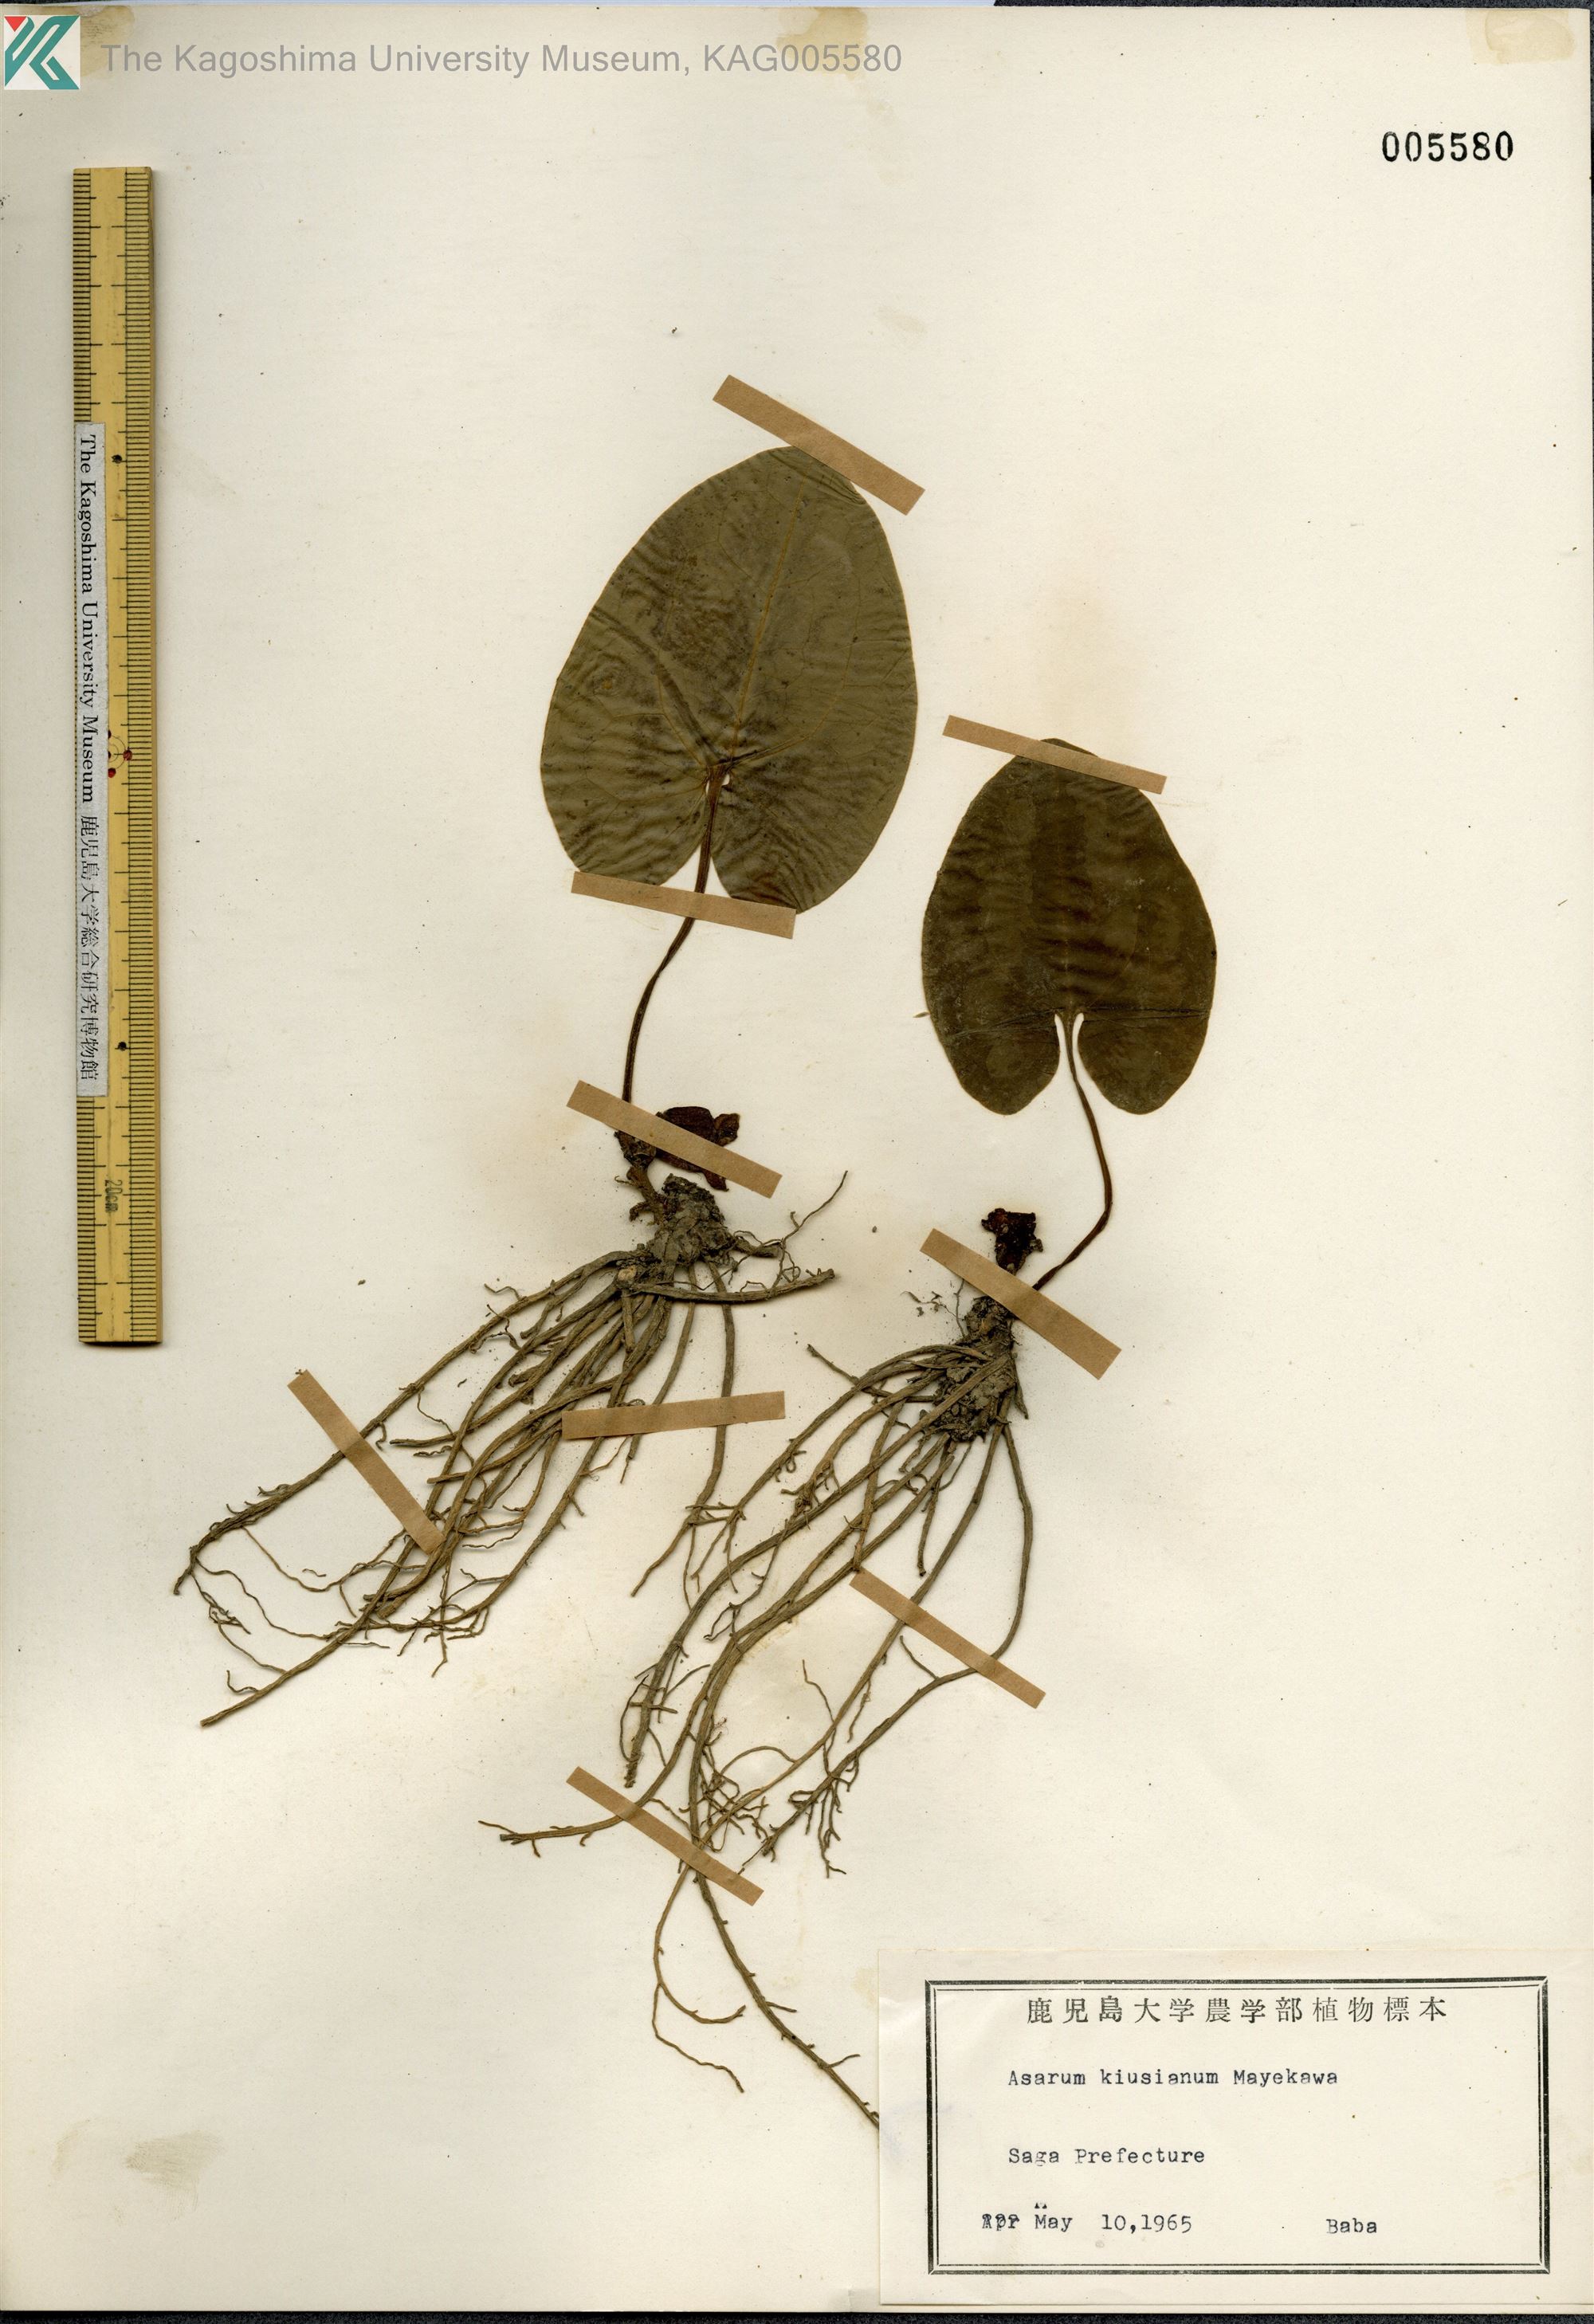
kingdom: Plantae
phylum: Tracheophyta
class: Magnoliopsida
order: Piperales
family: Aristolochiaceae
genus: Asarum
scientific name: Asarum kiusianum
